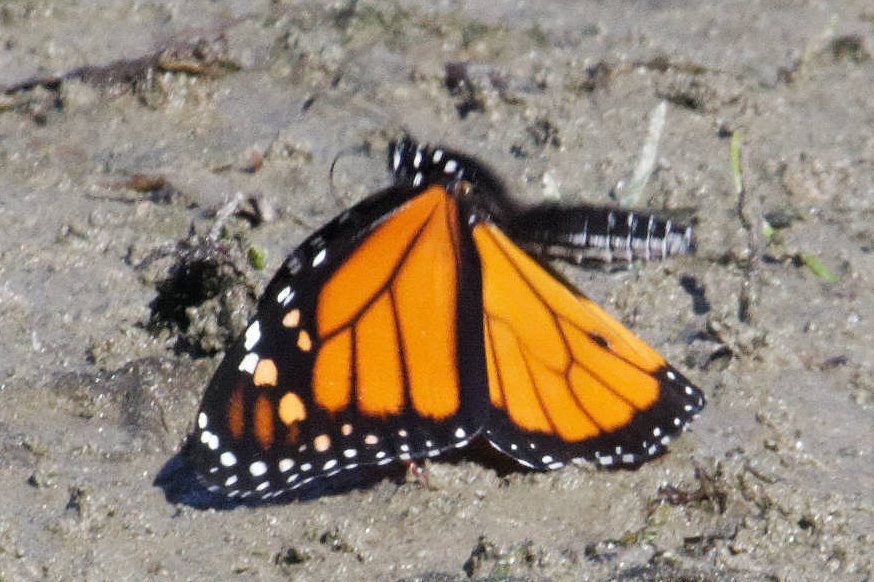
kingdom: Animalia
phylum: Arthropoda
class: Insecta
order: Lepidoptera
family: Nymphalidae
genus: Danaus
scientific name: Danaus plexippus
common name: Monarch
